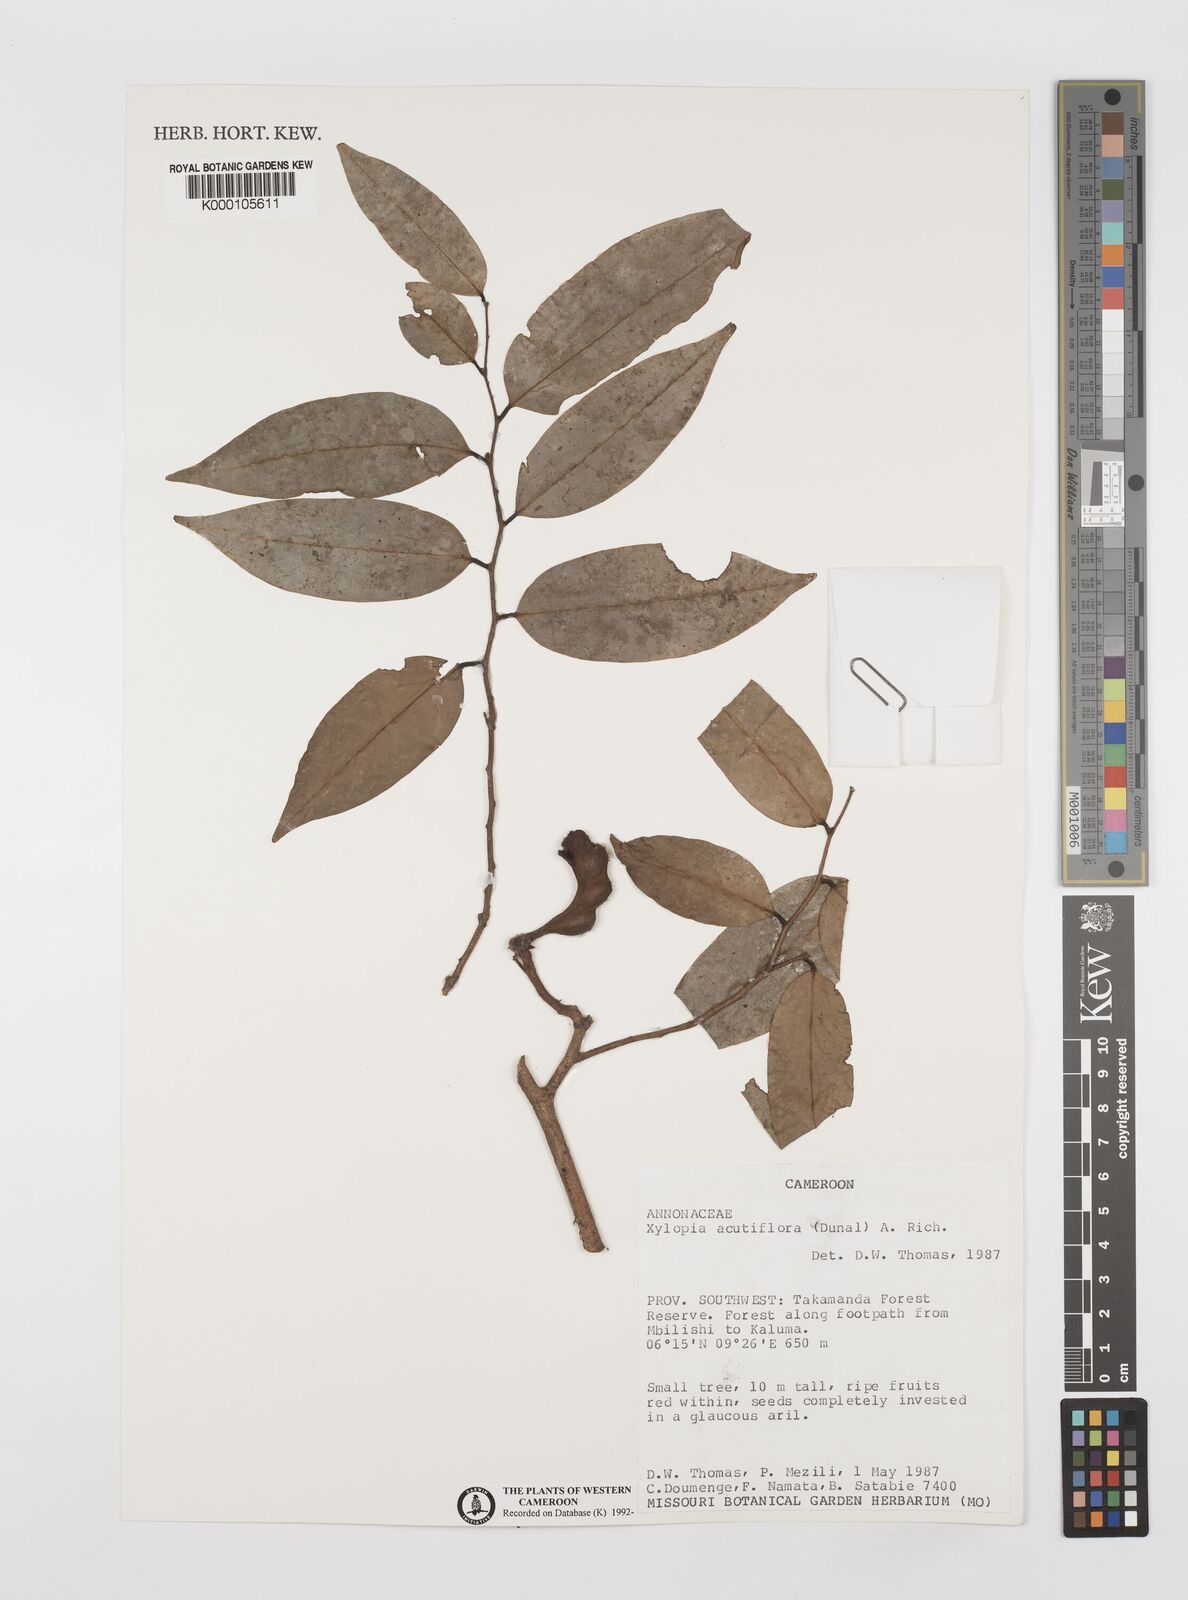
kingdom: Plantae
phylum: Tracheophyta
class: Magnoliopsida
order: Magnoliales
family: Annonaceae
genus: Xylopia
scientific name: Xylopia acutiflora
